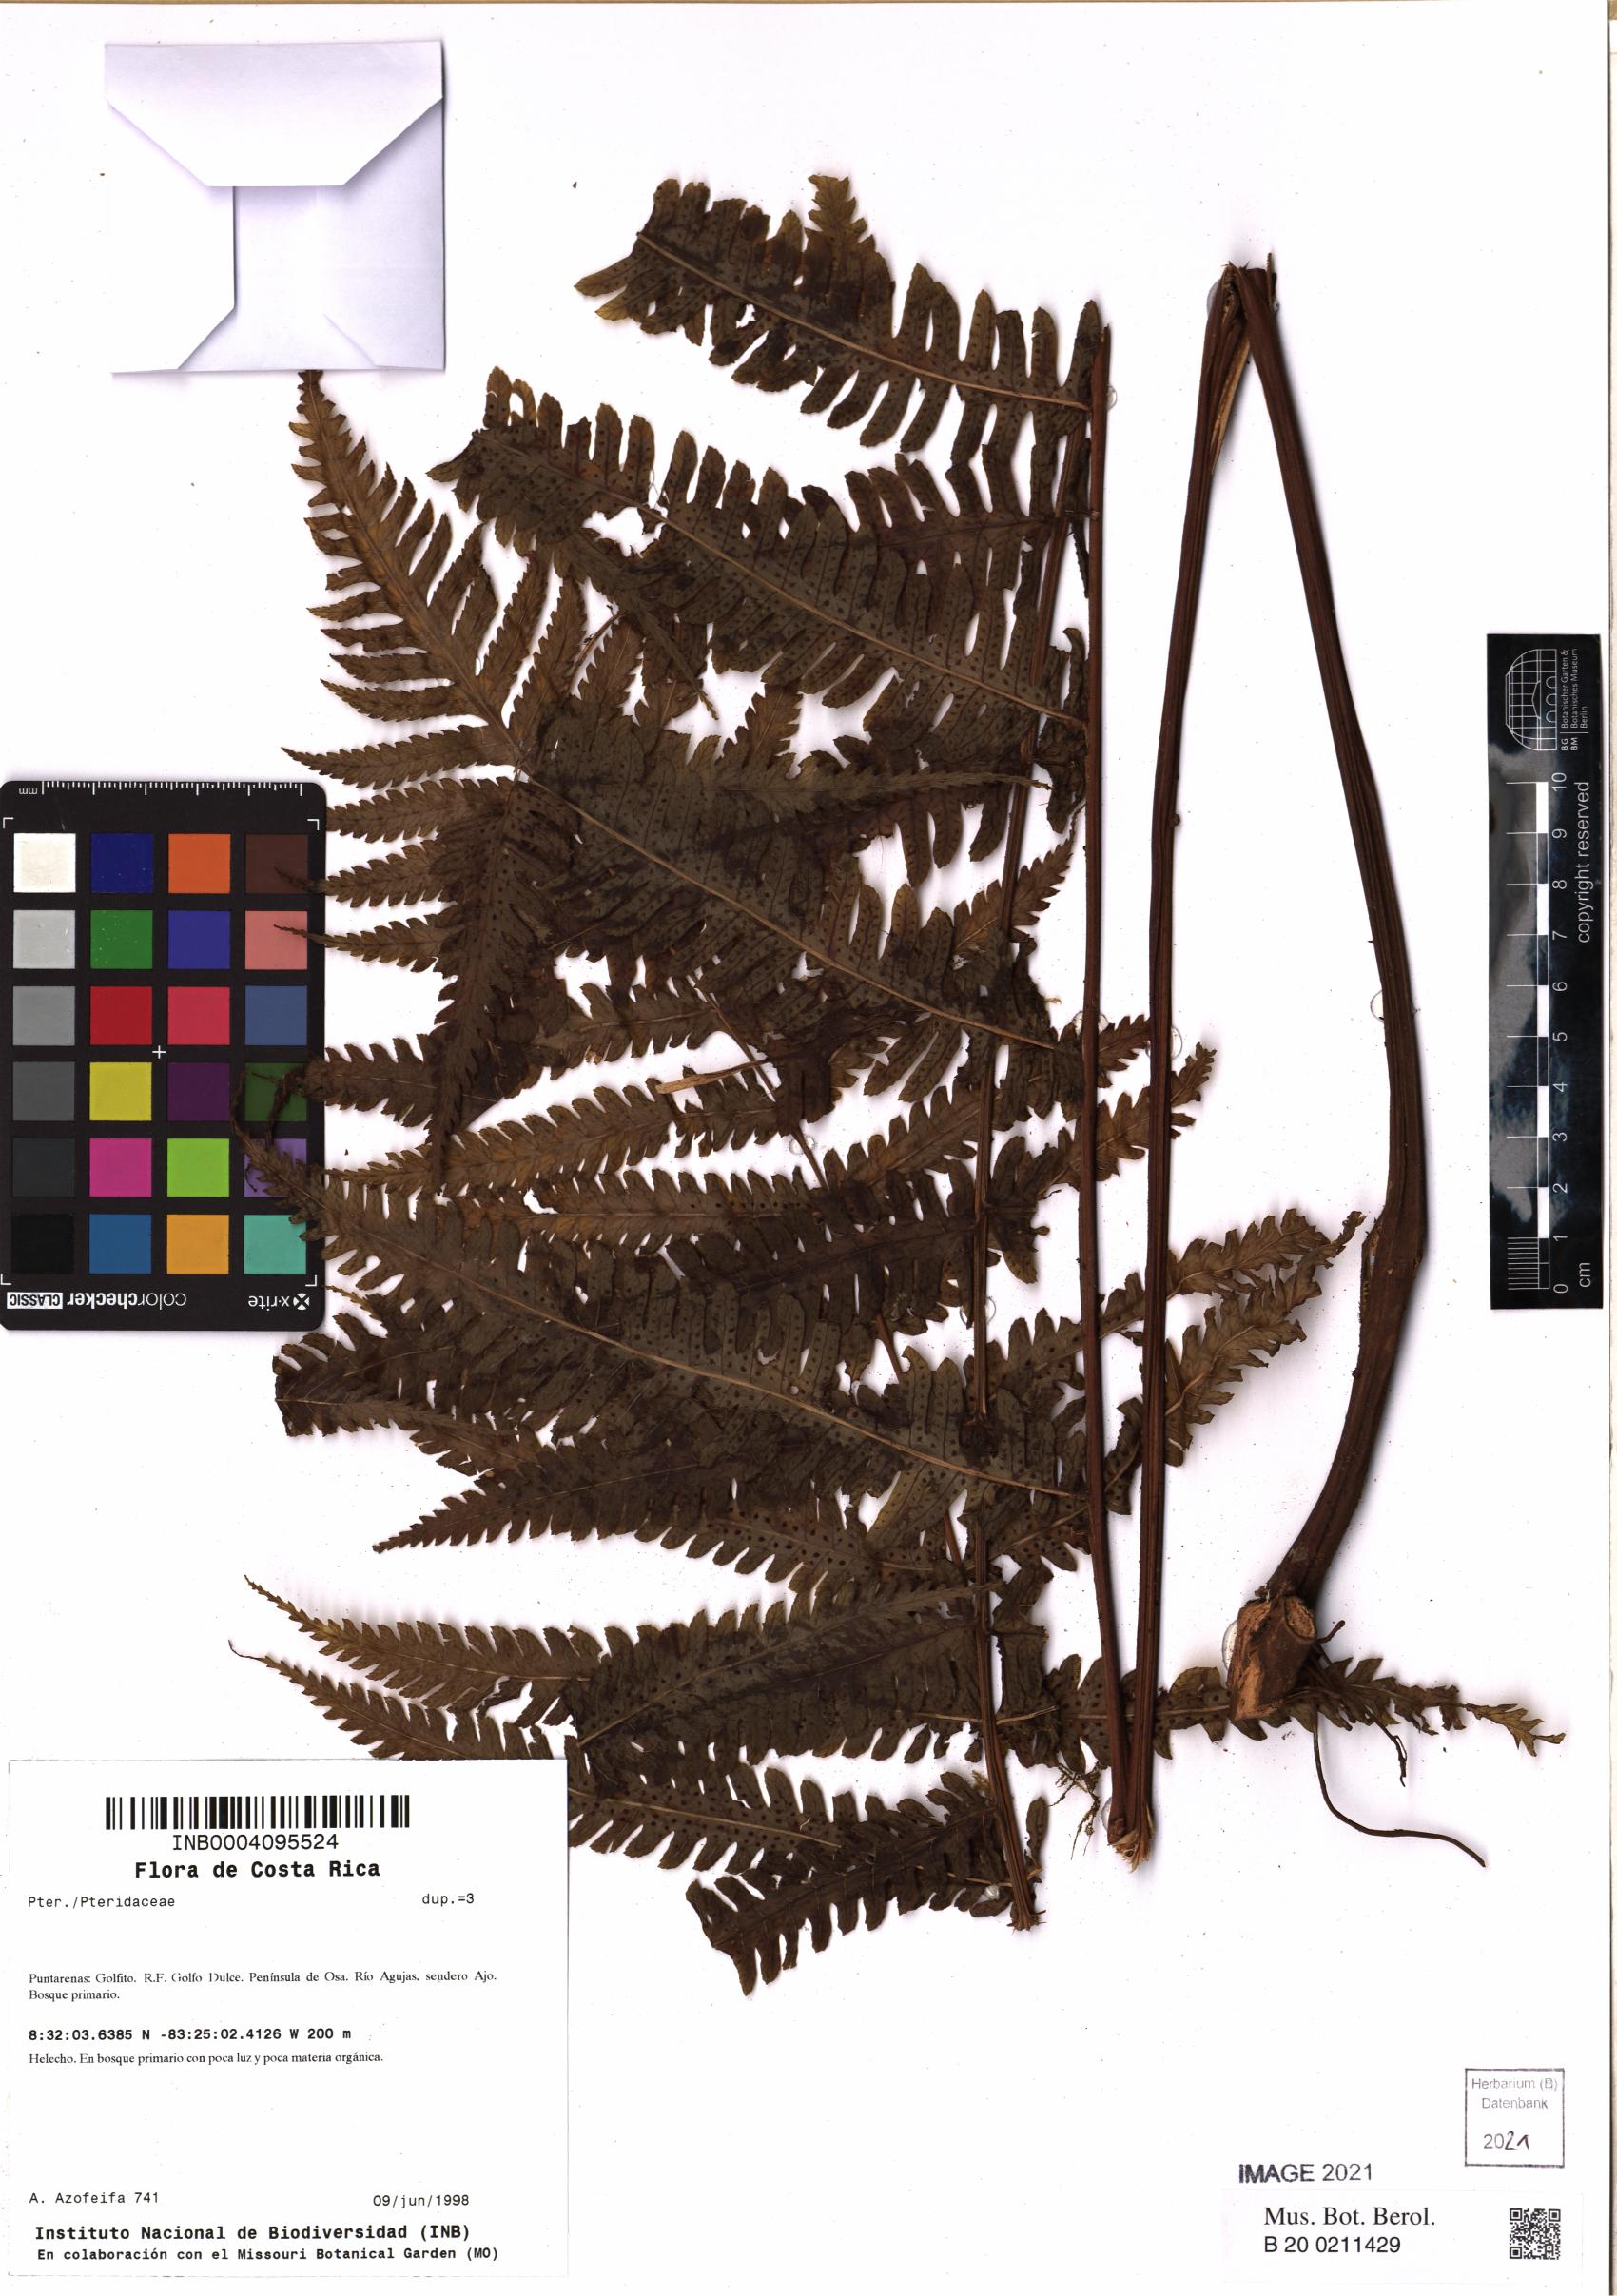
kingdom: Plantae
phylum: Tracheophyta
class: Polypodiopsida
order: Polypodiales
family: Pteridaceae
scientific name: Pteridaceae
